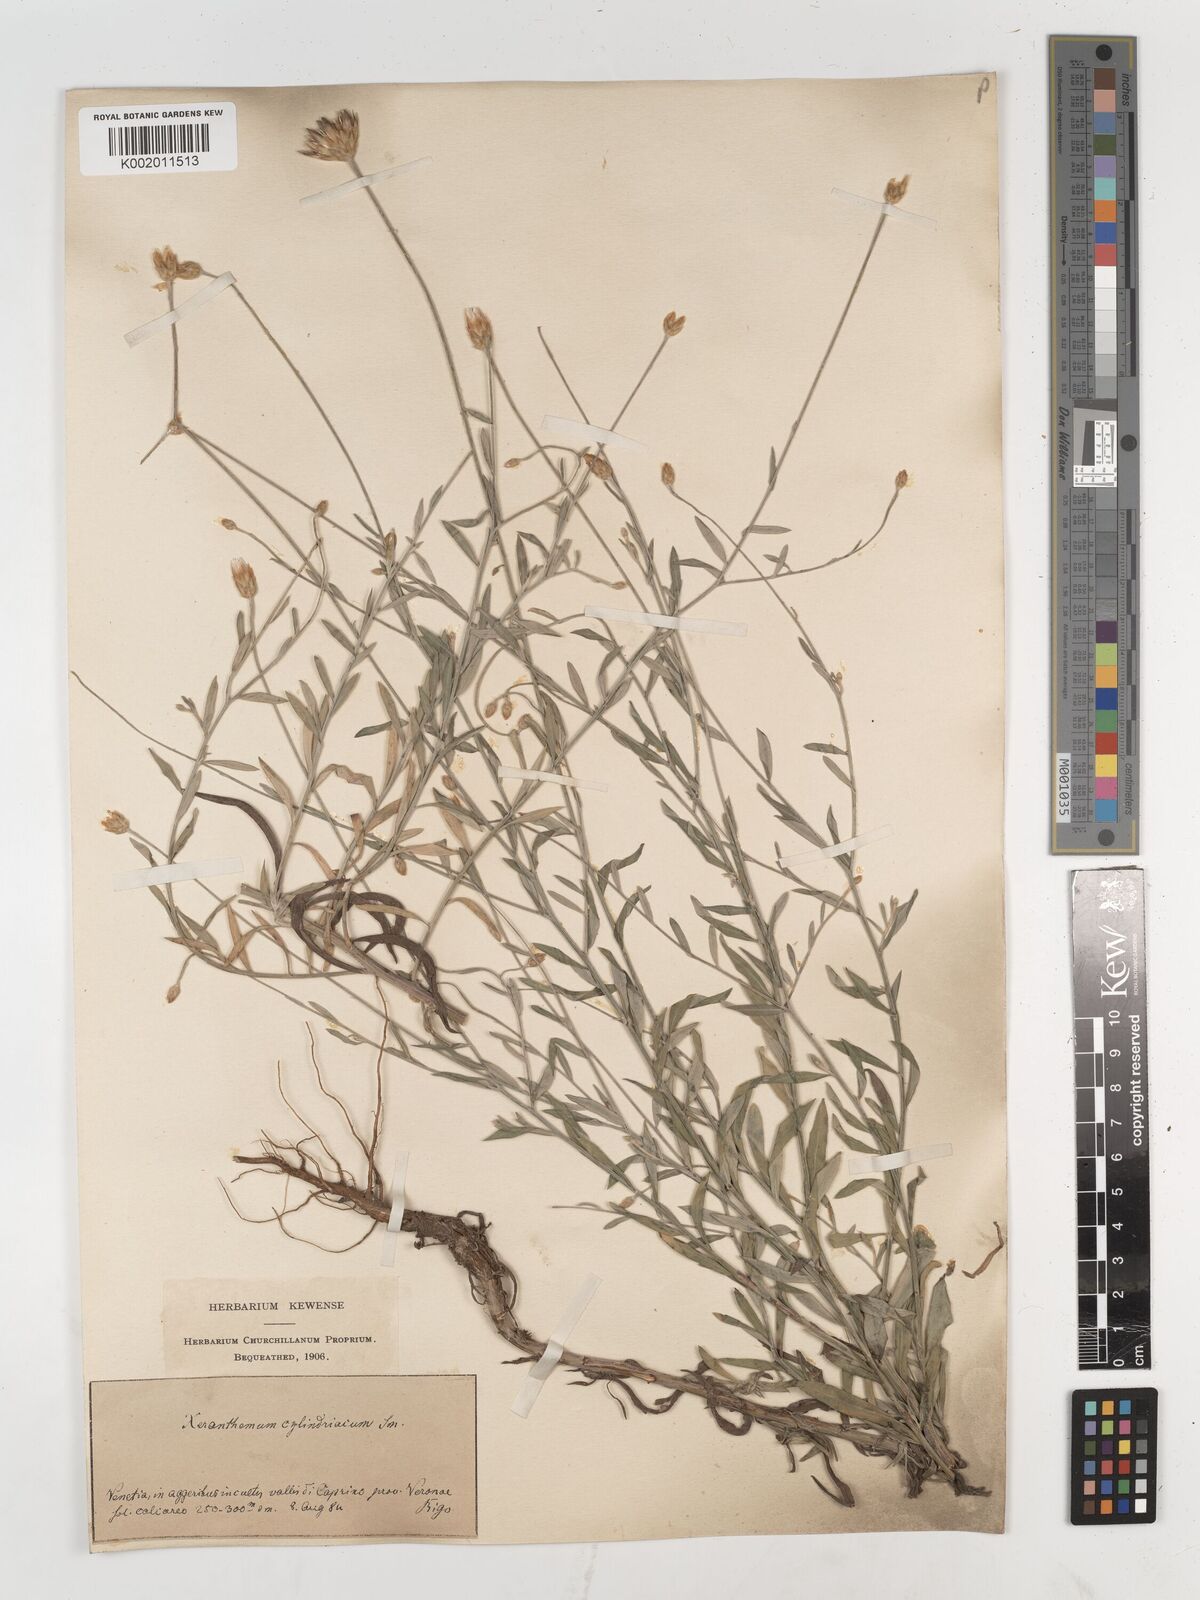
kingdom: Plantae
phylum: Tracheophyta
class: Magnoliopsida
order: Asterales
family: Asteraceae
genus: Xeranthemum
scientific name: Xeranthemum cylindraceum
